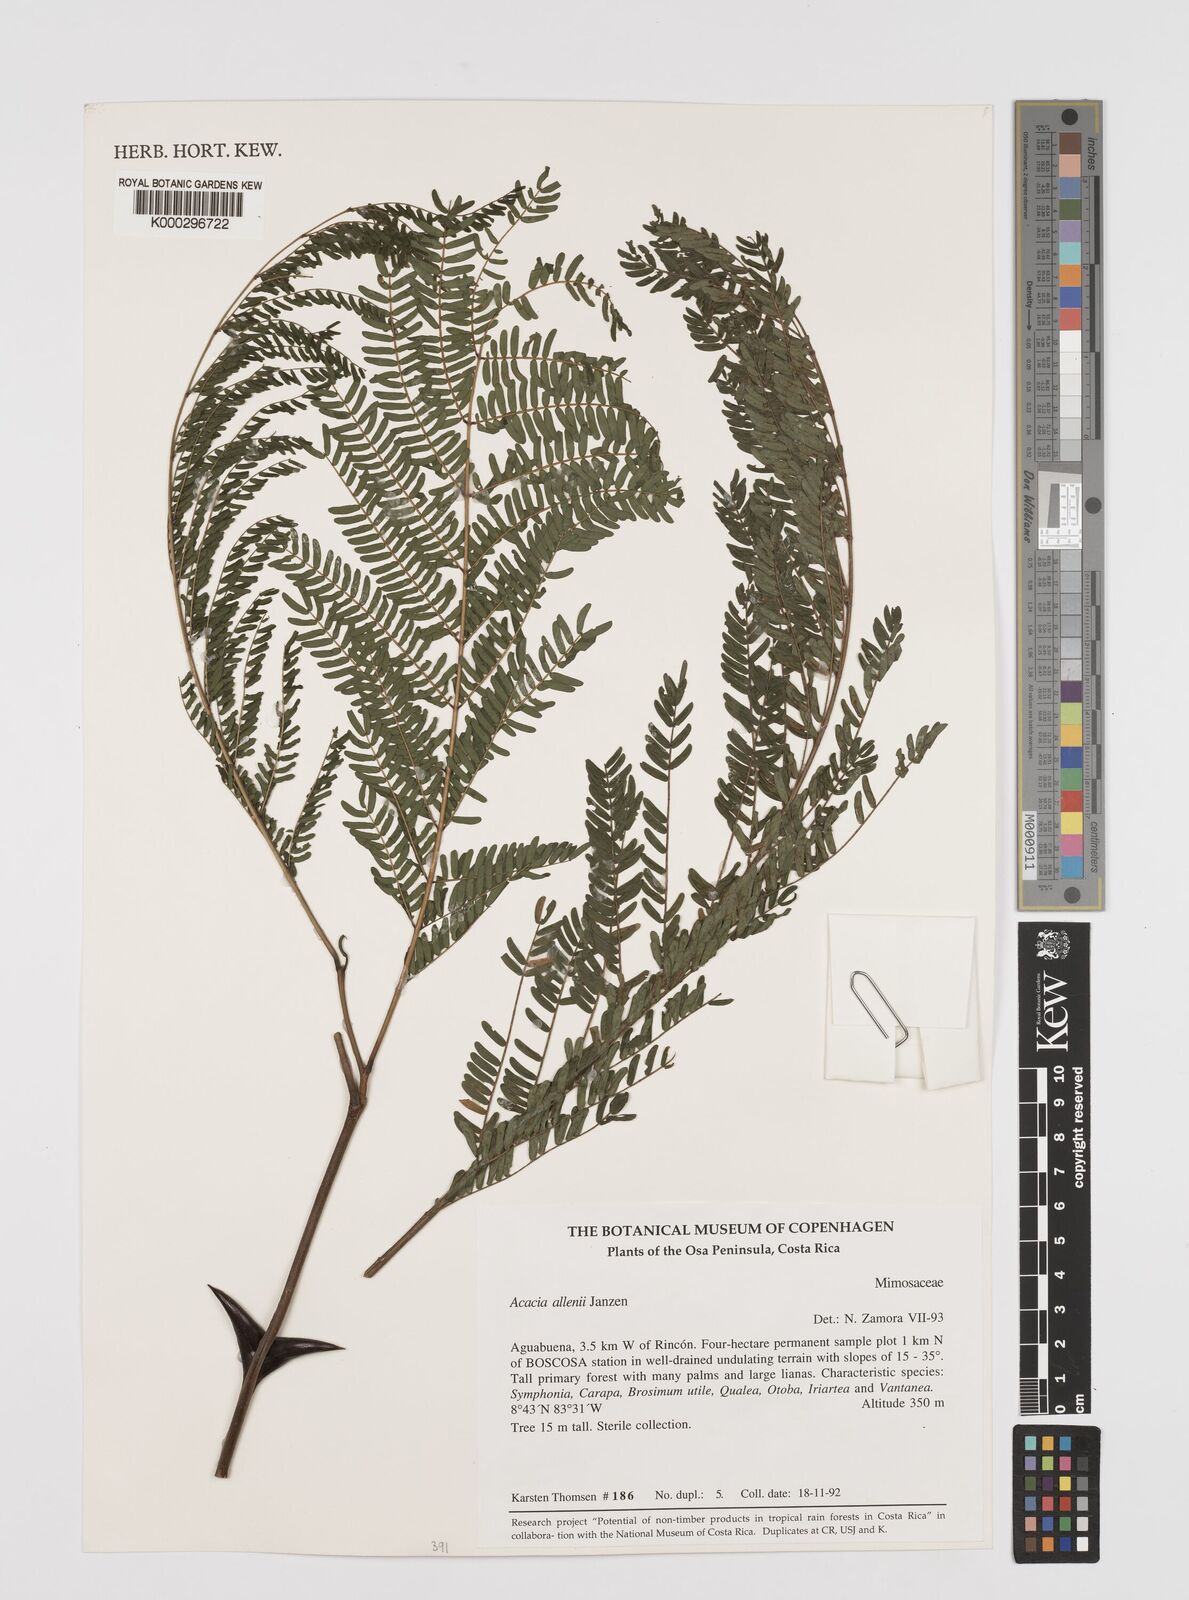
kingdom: Plantae
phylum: Tracheophyta
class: Magnoliopsida
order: Fabales
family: Fabaceae
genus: Vachellia
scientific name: Vachellia allenii
